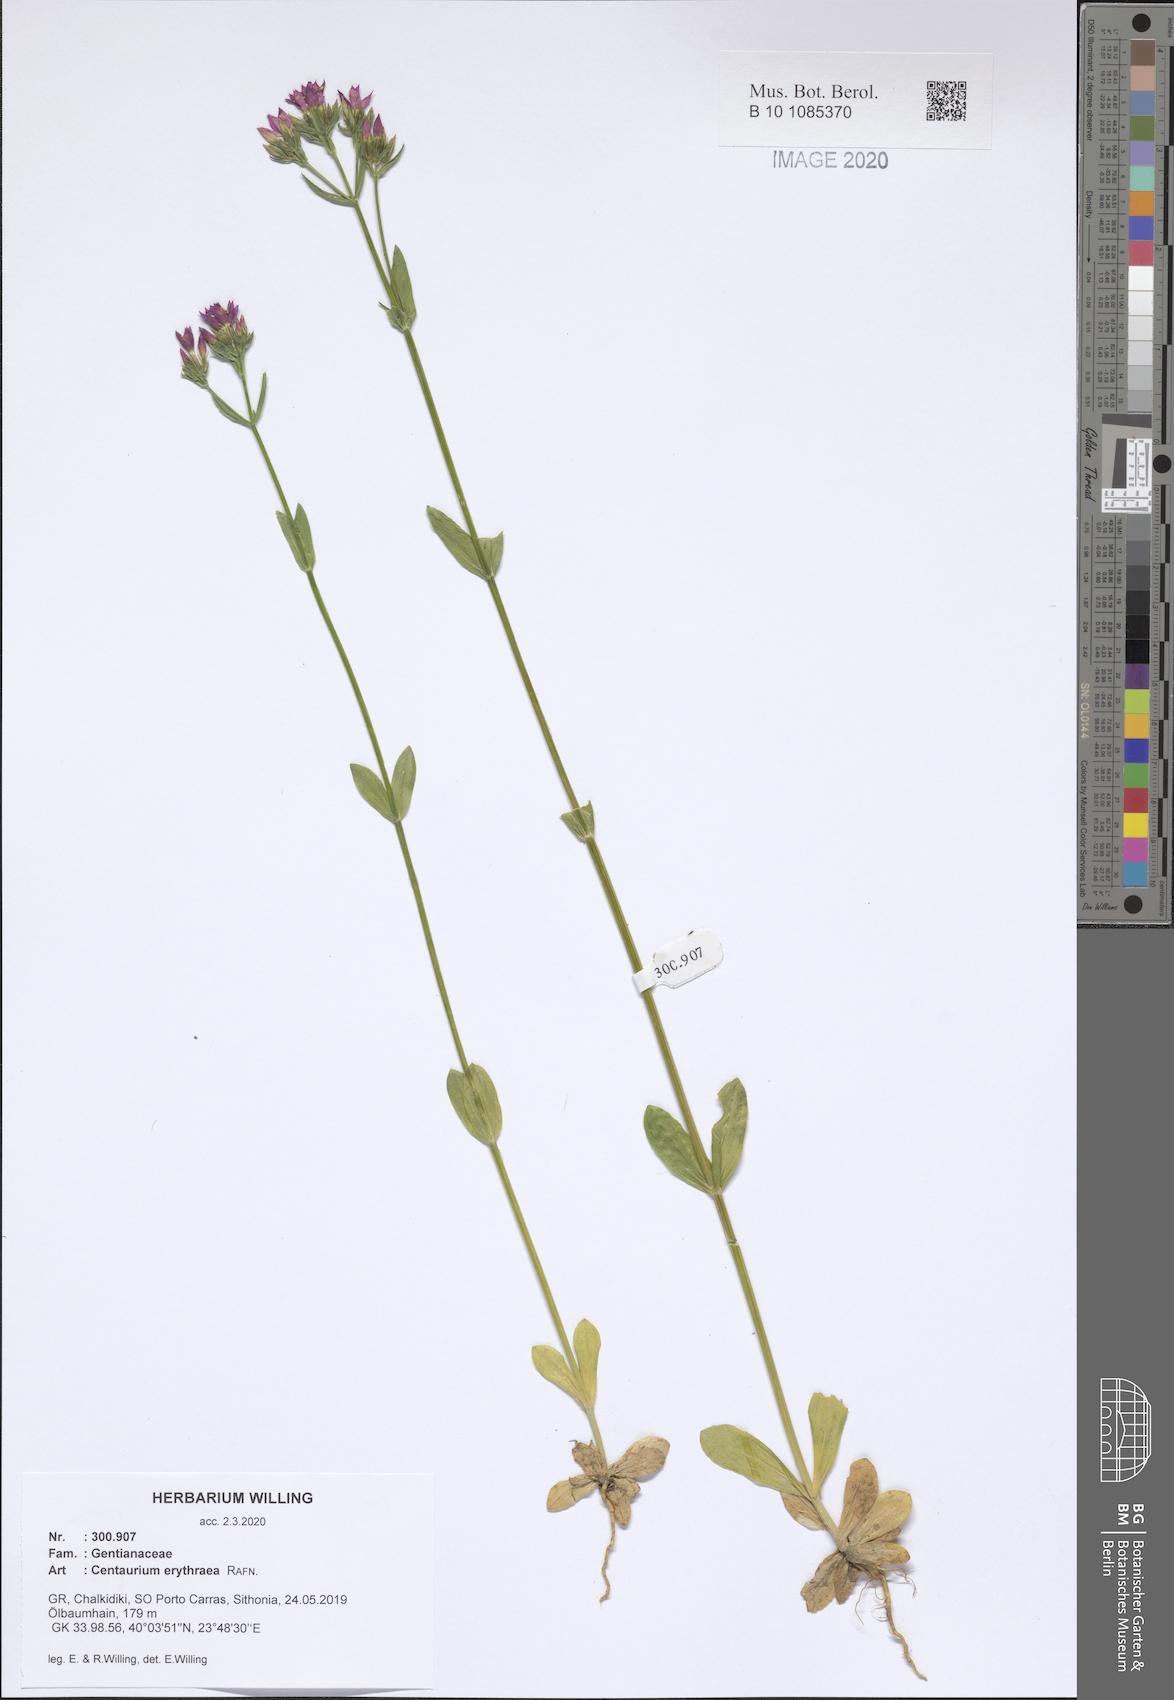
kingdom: Plantae
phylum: Tracheophyta
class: Magnoliopsida
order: Gentianales
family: Gentianaceae
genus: Centaurium
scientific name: Centaurium erythraea
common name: Common centaury
